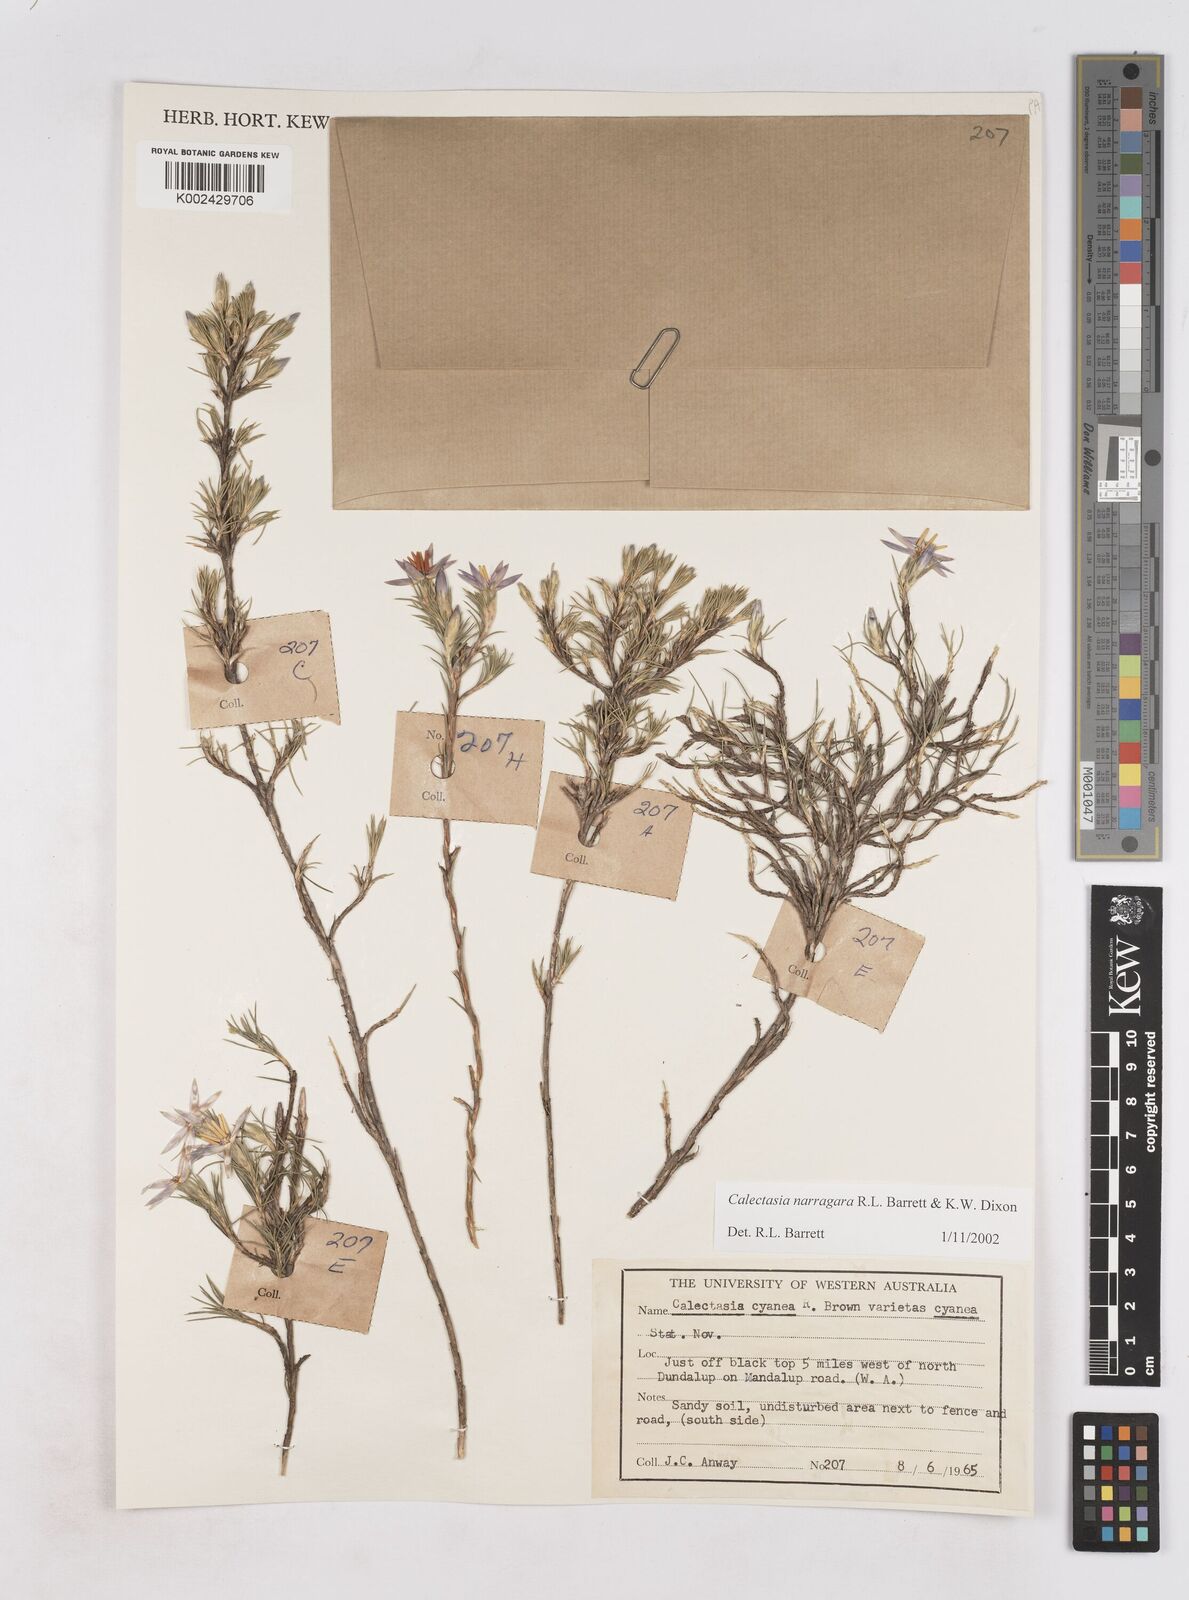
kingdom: Plantae
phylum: Tracheophyta
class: Liliopsida
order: Arecales
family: Dasypogonaceae
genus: Calectasia
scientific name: Calectasia narragara
